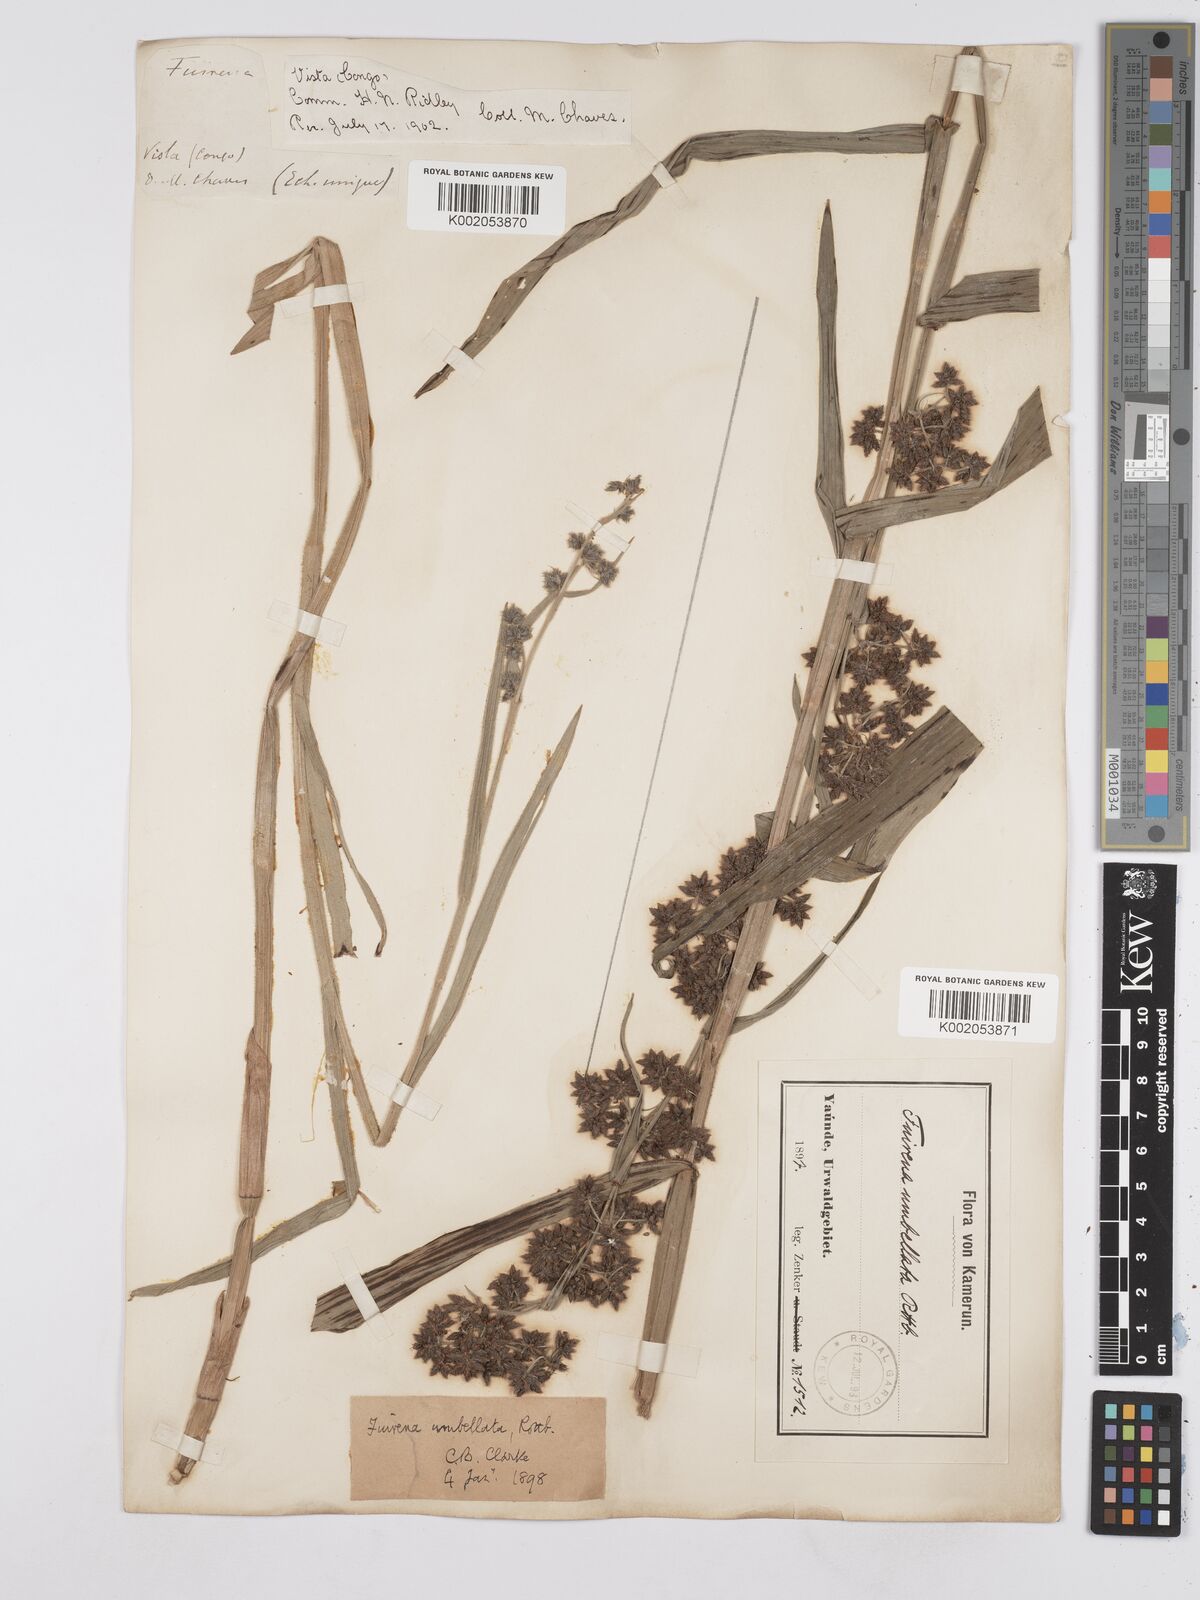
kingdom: Plantae
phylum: Tracheophyta
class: Liliopsida
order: Poales
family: Cyperaceae
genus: Fuirena
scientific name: Fuirena umbellata
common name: Yefen
